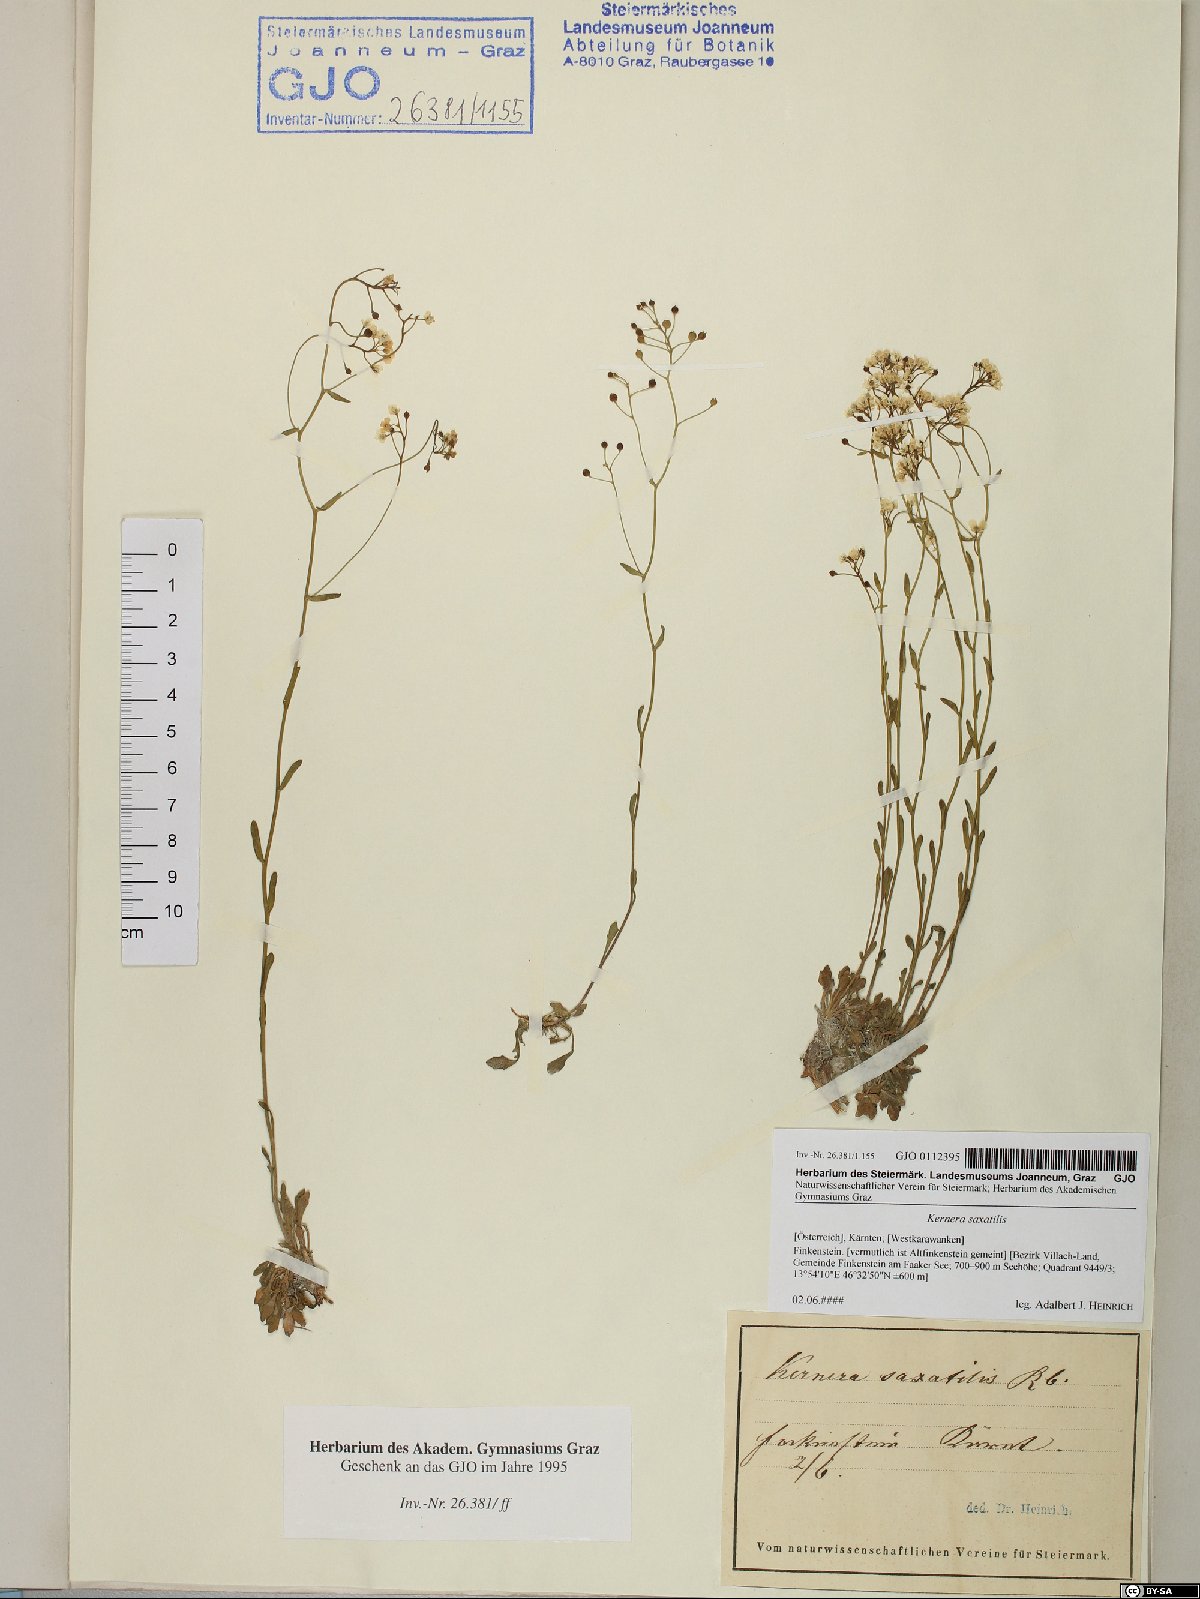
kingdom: Plantae
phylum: Tracheophyta
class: Magnoliopsida
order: Brassicales
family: Brassicaceae
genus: Kernera
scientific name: Kernera saxatilis
